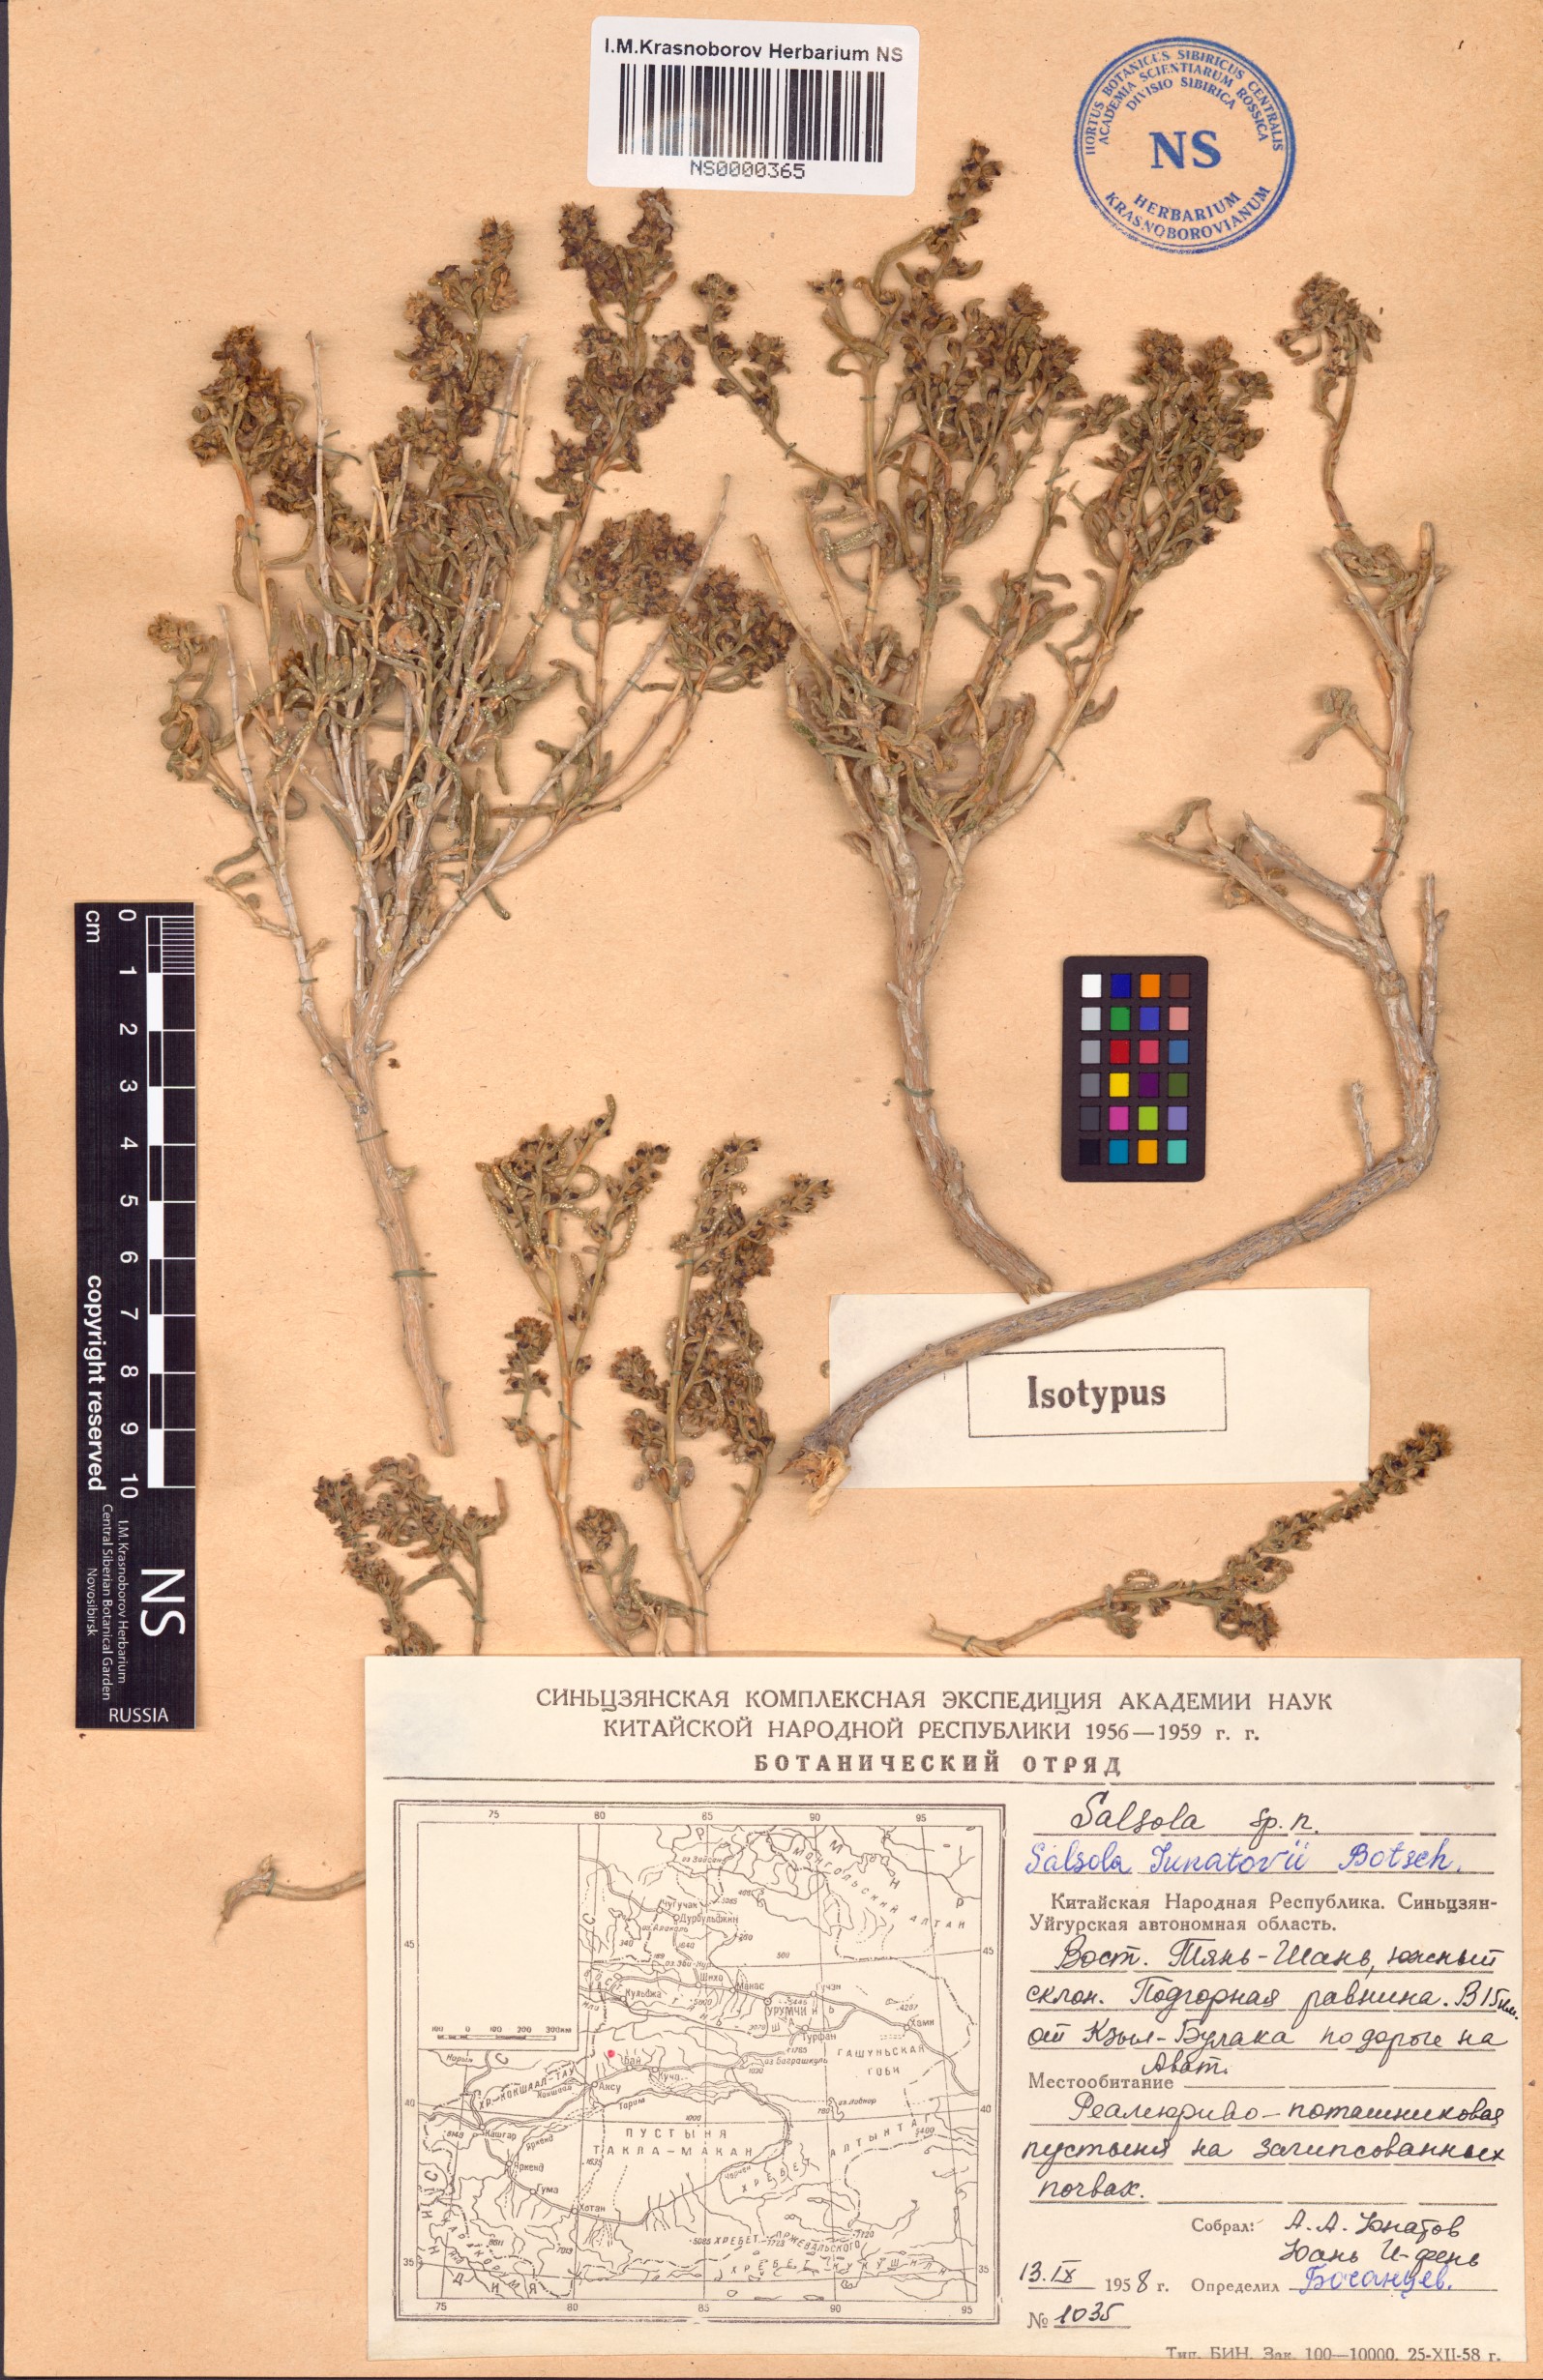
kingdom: Plantae
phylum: Tracheophyta
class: Magnoliopsida
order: Caryophyllales
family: Amaranthaceae
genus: Salsola
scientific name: Salsola junatovii
